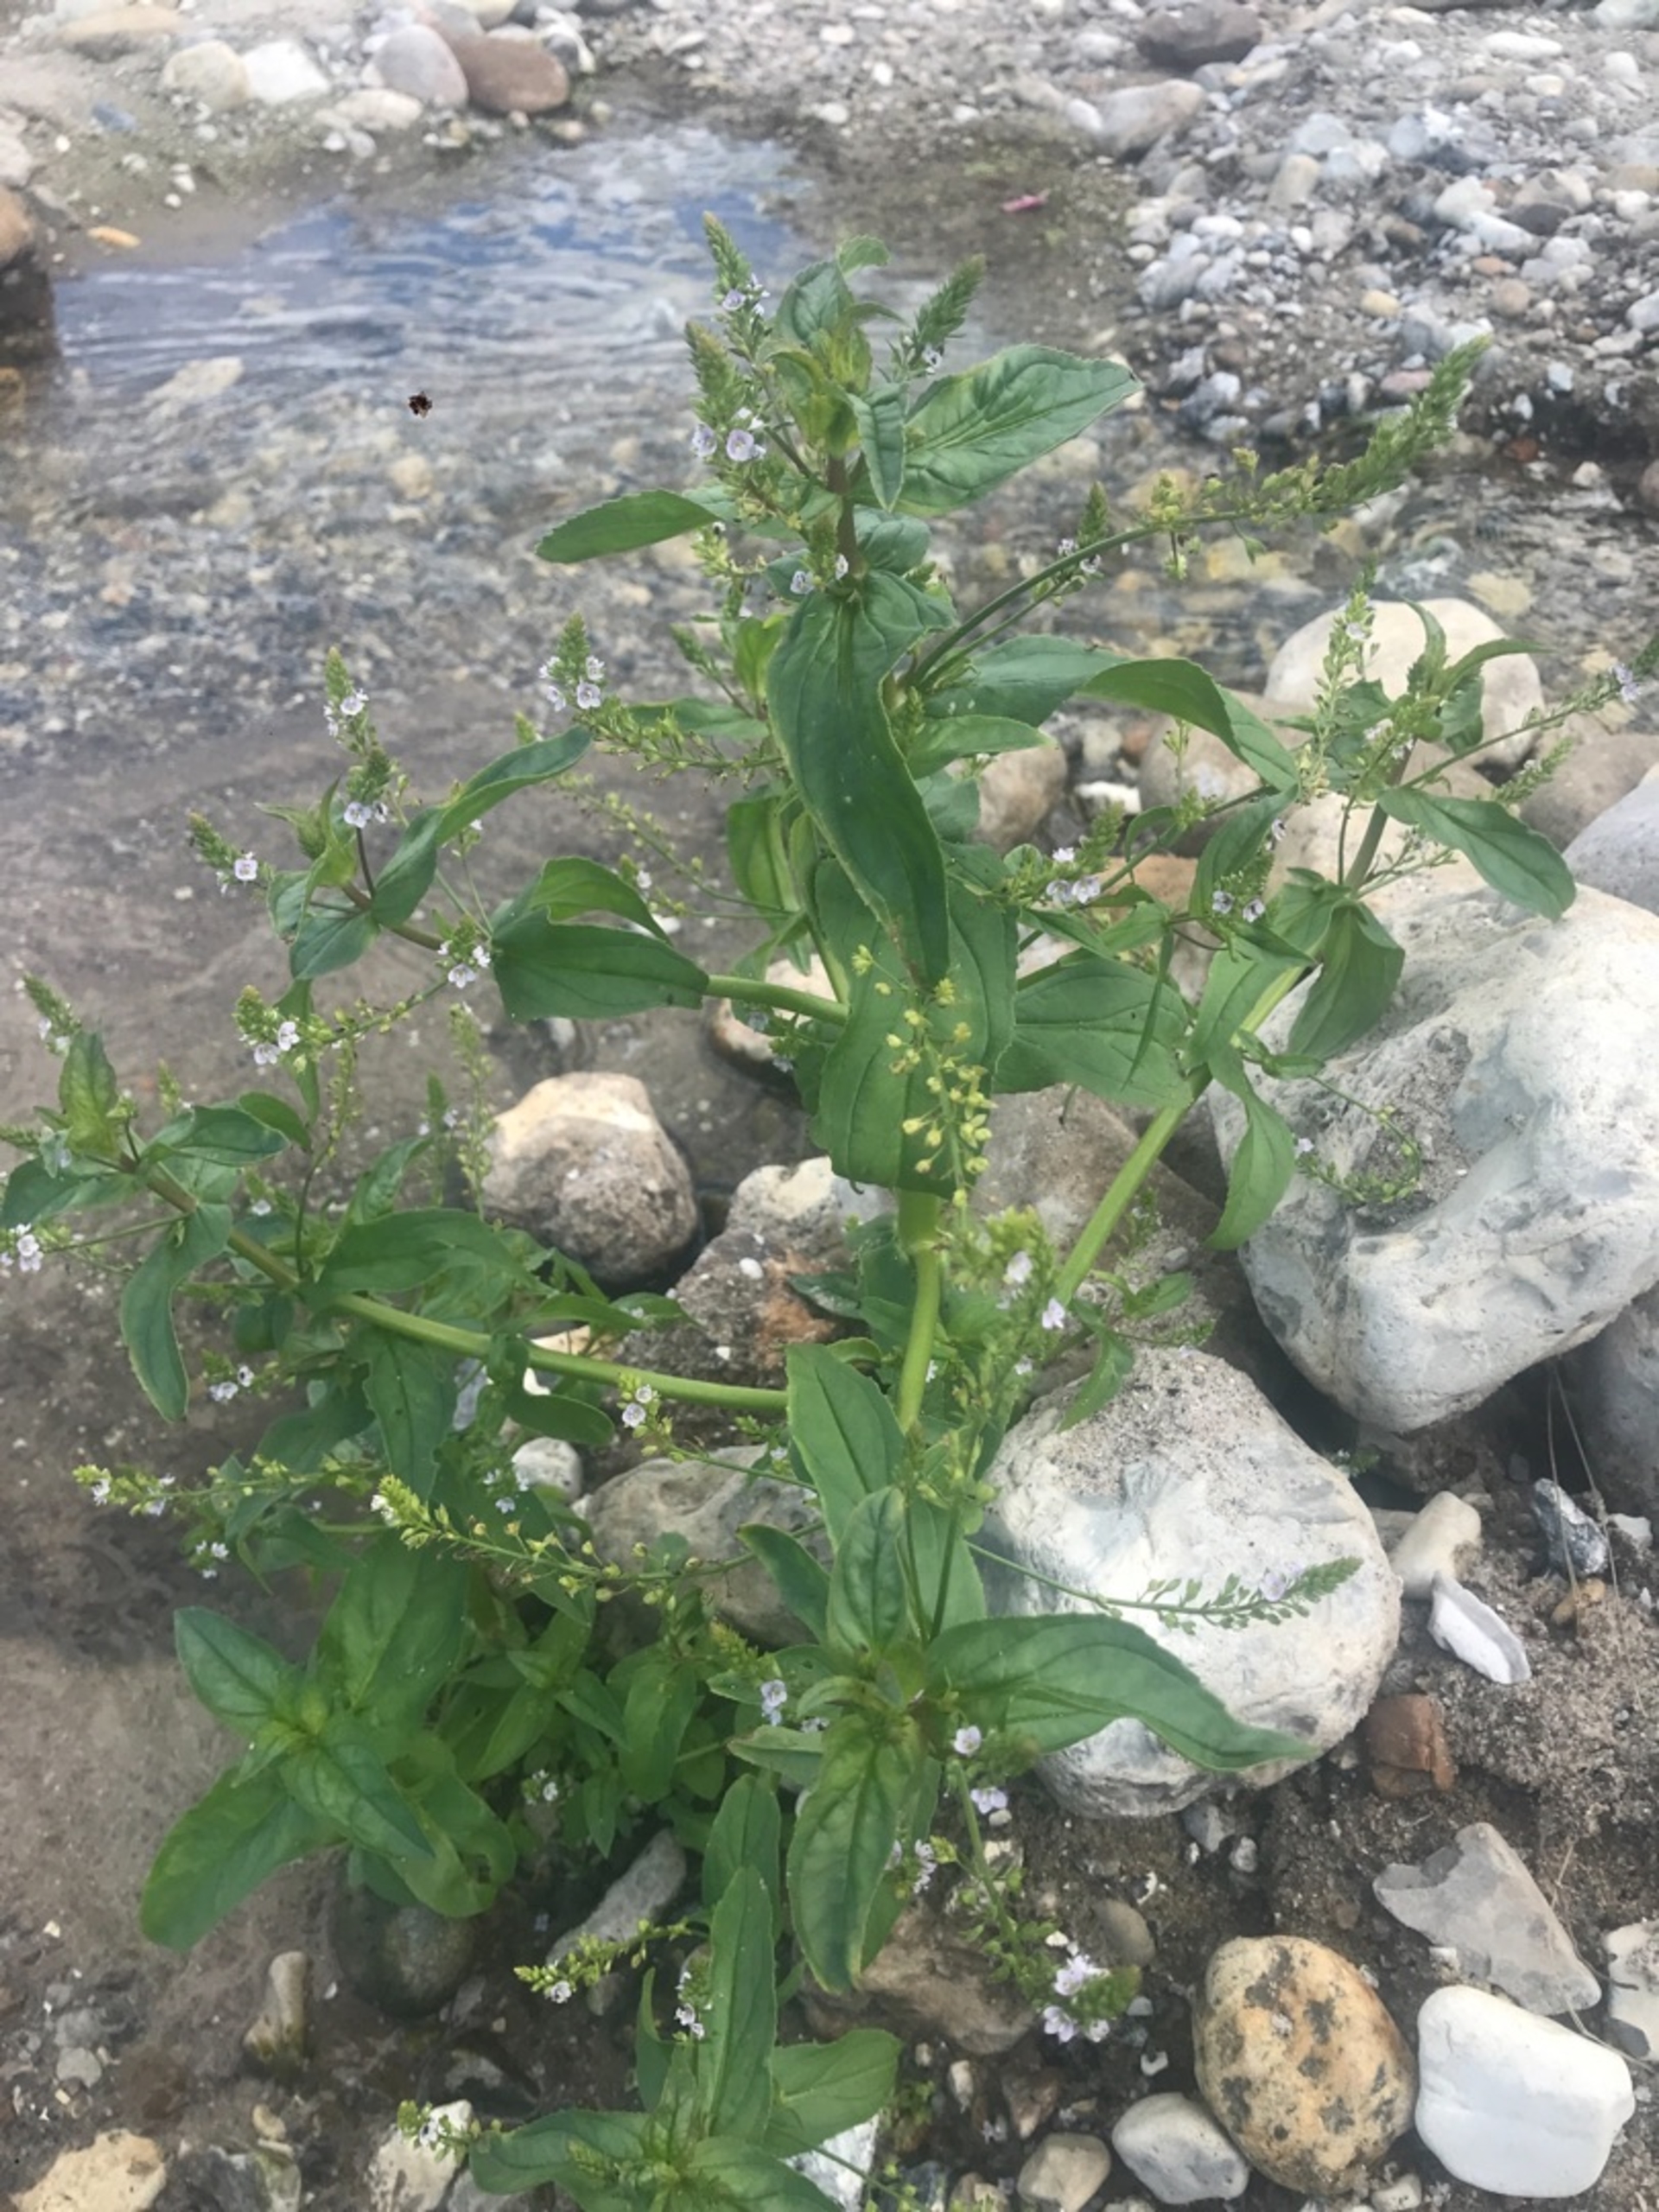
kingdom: Plantae
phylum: Tracheophyta
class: Magnoliopsida
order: Lamiales
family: Plantaginaceae
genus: Veronica
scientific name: Veronica anagallis-aquatica
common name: Lancetbladet ærenpris
